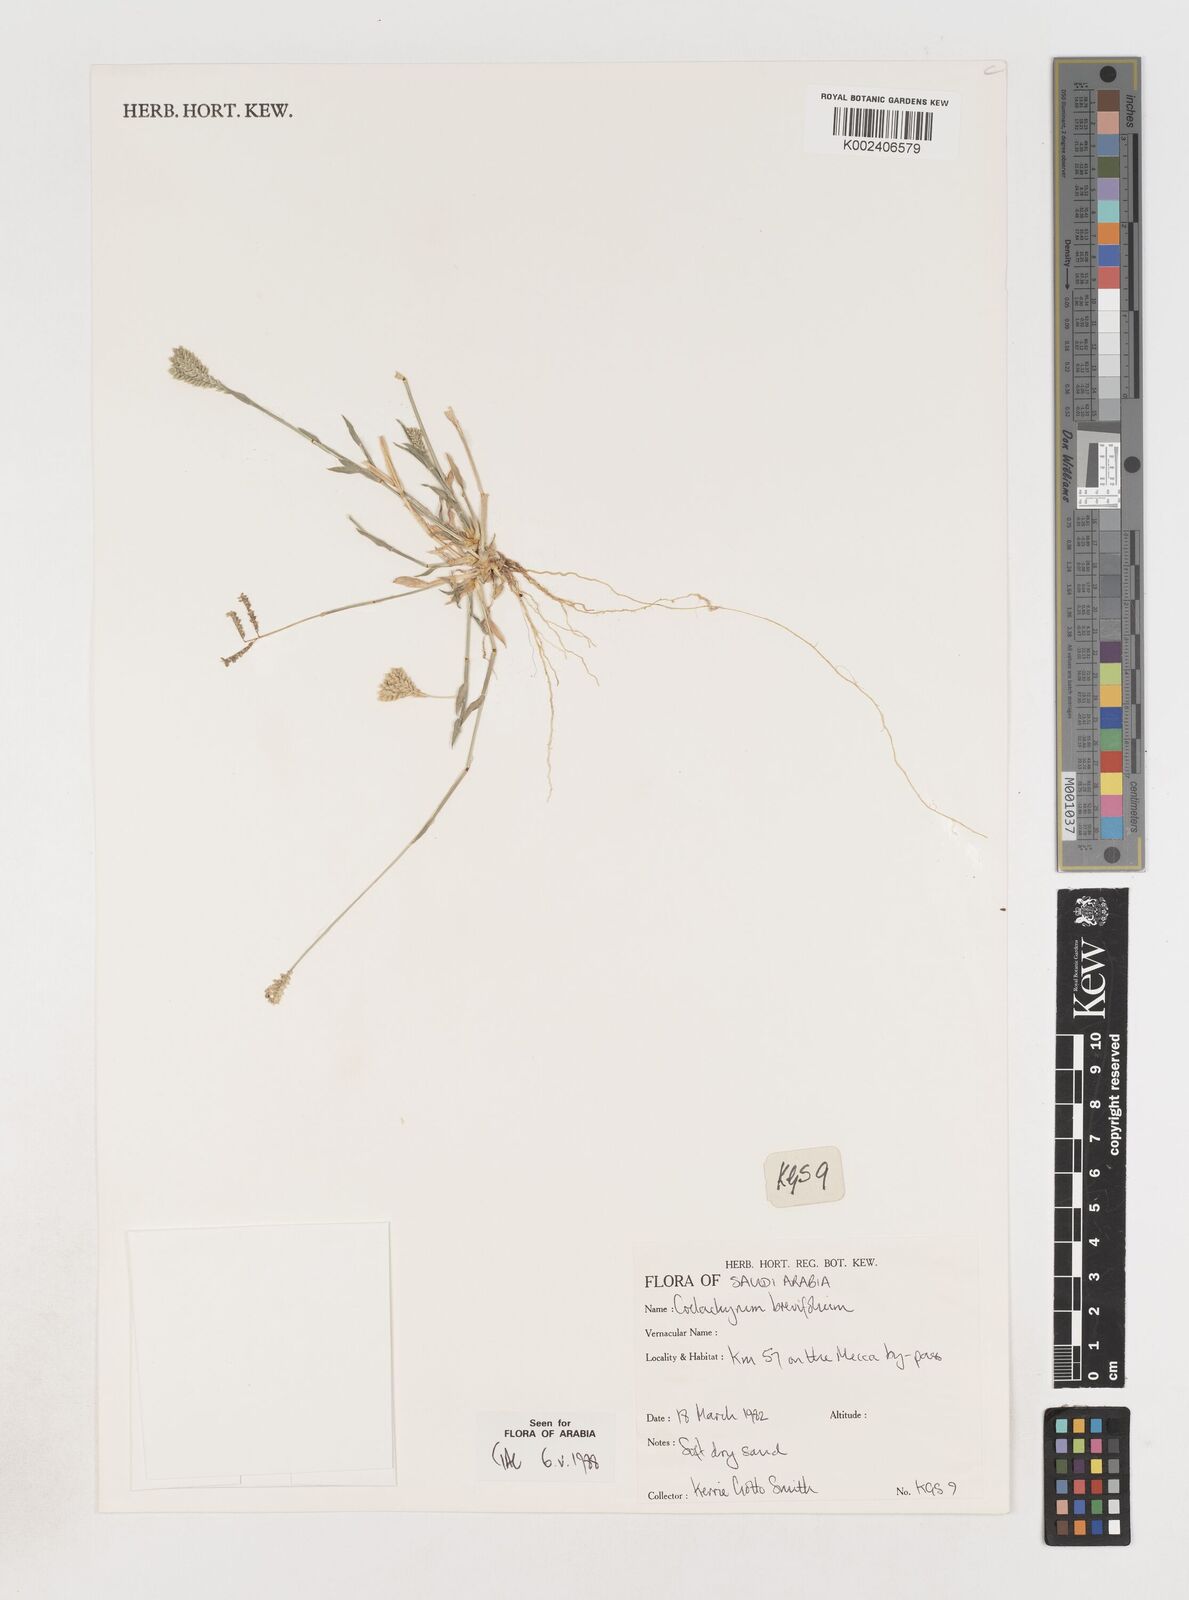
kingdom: Plantae
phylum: Tracheophyta
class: Liliopsida
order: Poales
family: Poaceae
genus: Coelachyrum
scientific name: Coelachyrum brevifolium
